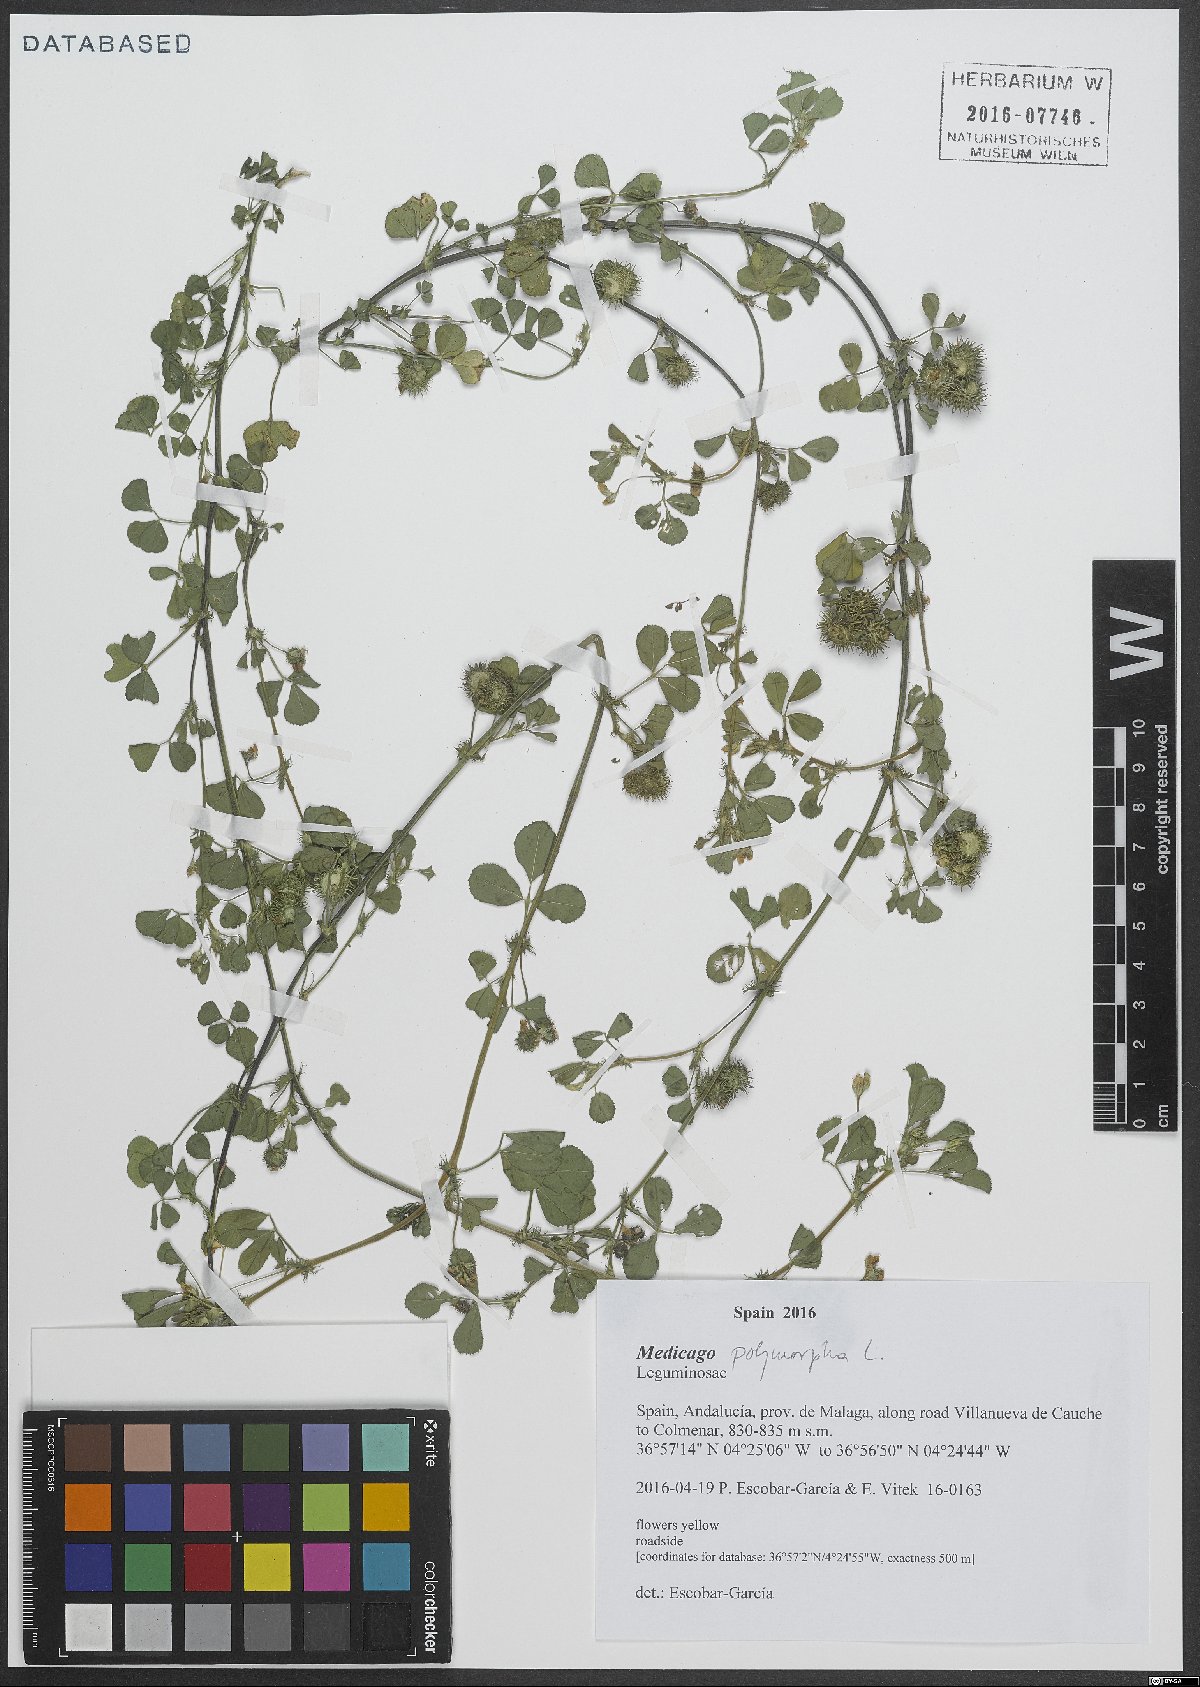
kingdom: Plantae
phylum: Tracheophyta
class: Magnoliopsida
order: Fabales
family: Fabaceae
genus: Medicago
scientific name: Medicago polymorpha
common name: Burclover
